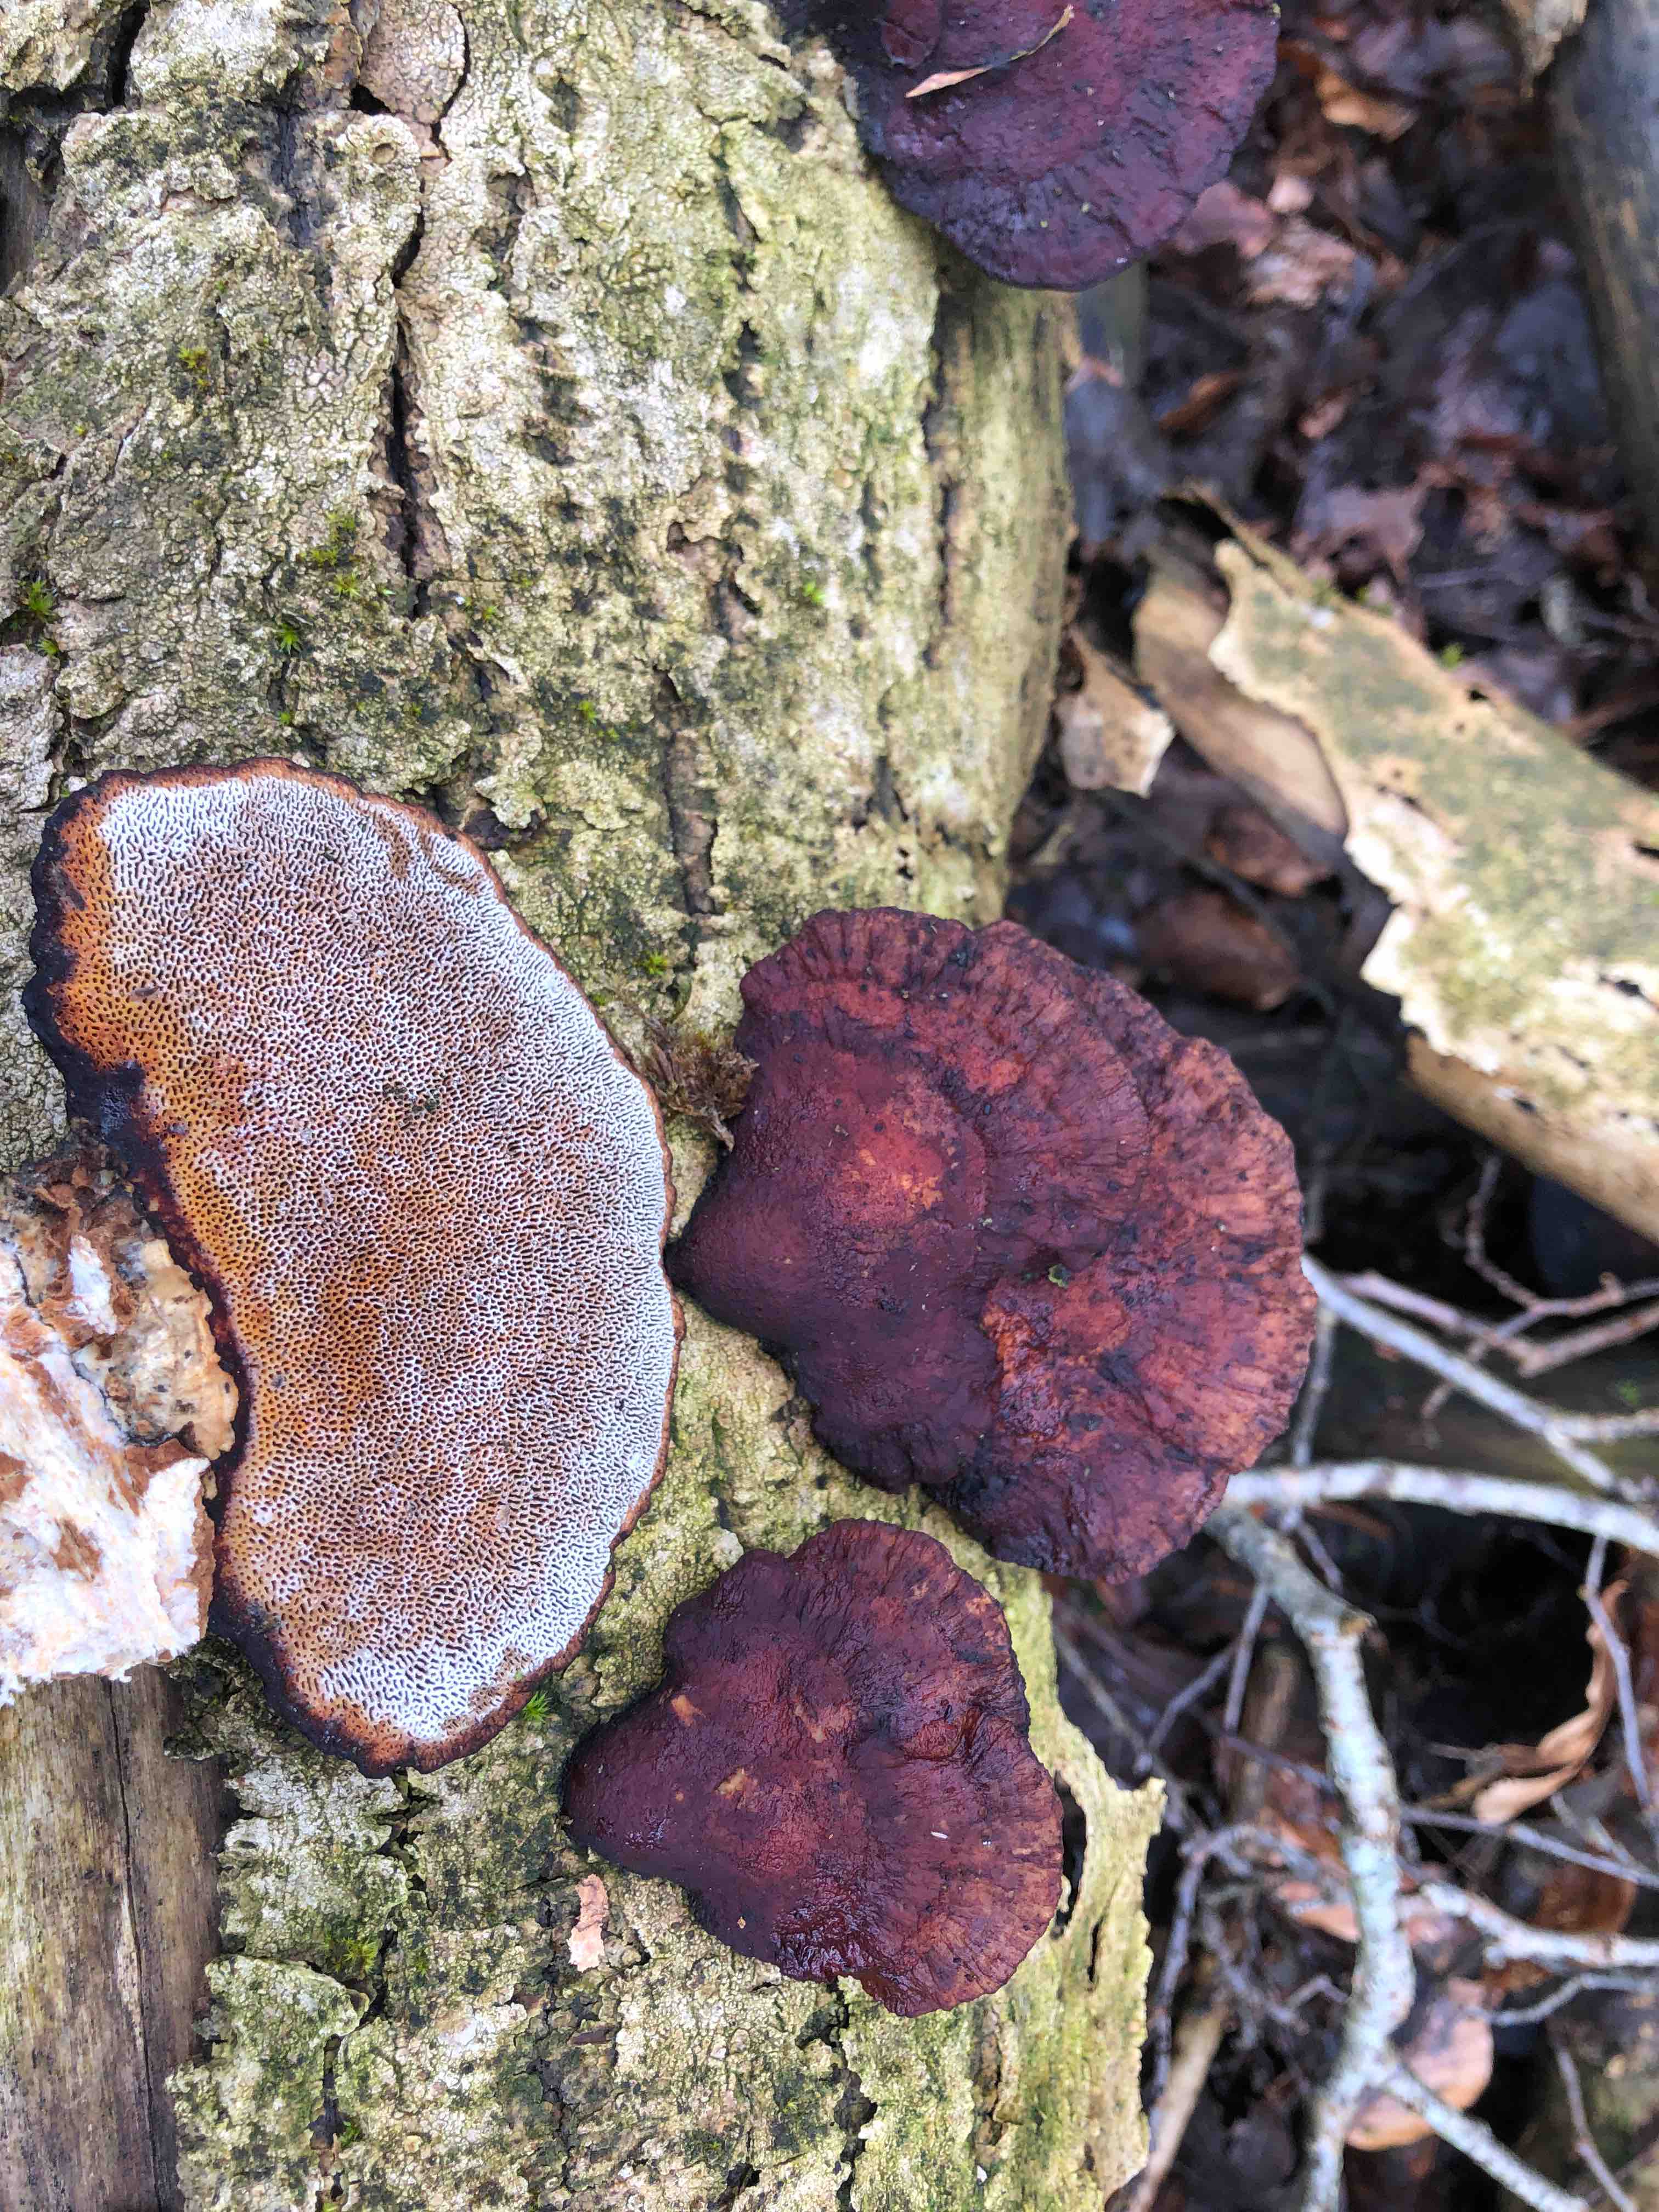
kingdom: Fungi
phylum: Basidiomycota
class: Agaricomycetes
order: Polyporales
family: Polyporaceae
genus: Daedaleopsis
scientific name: Daedaleopsis confragosa
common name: rødmende læderporesvamp
